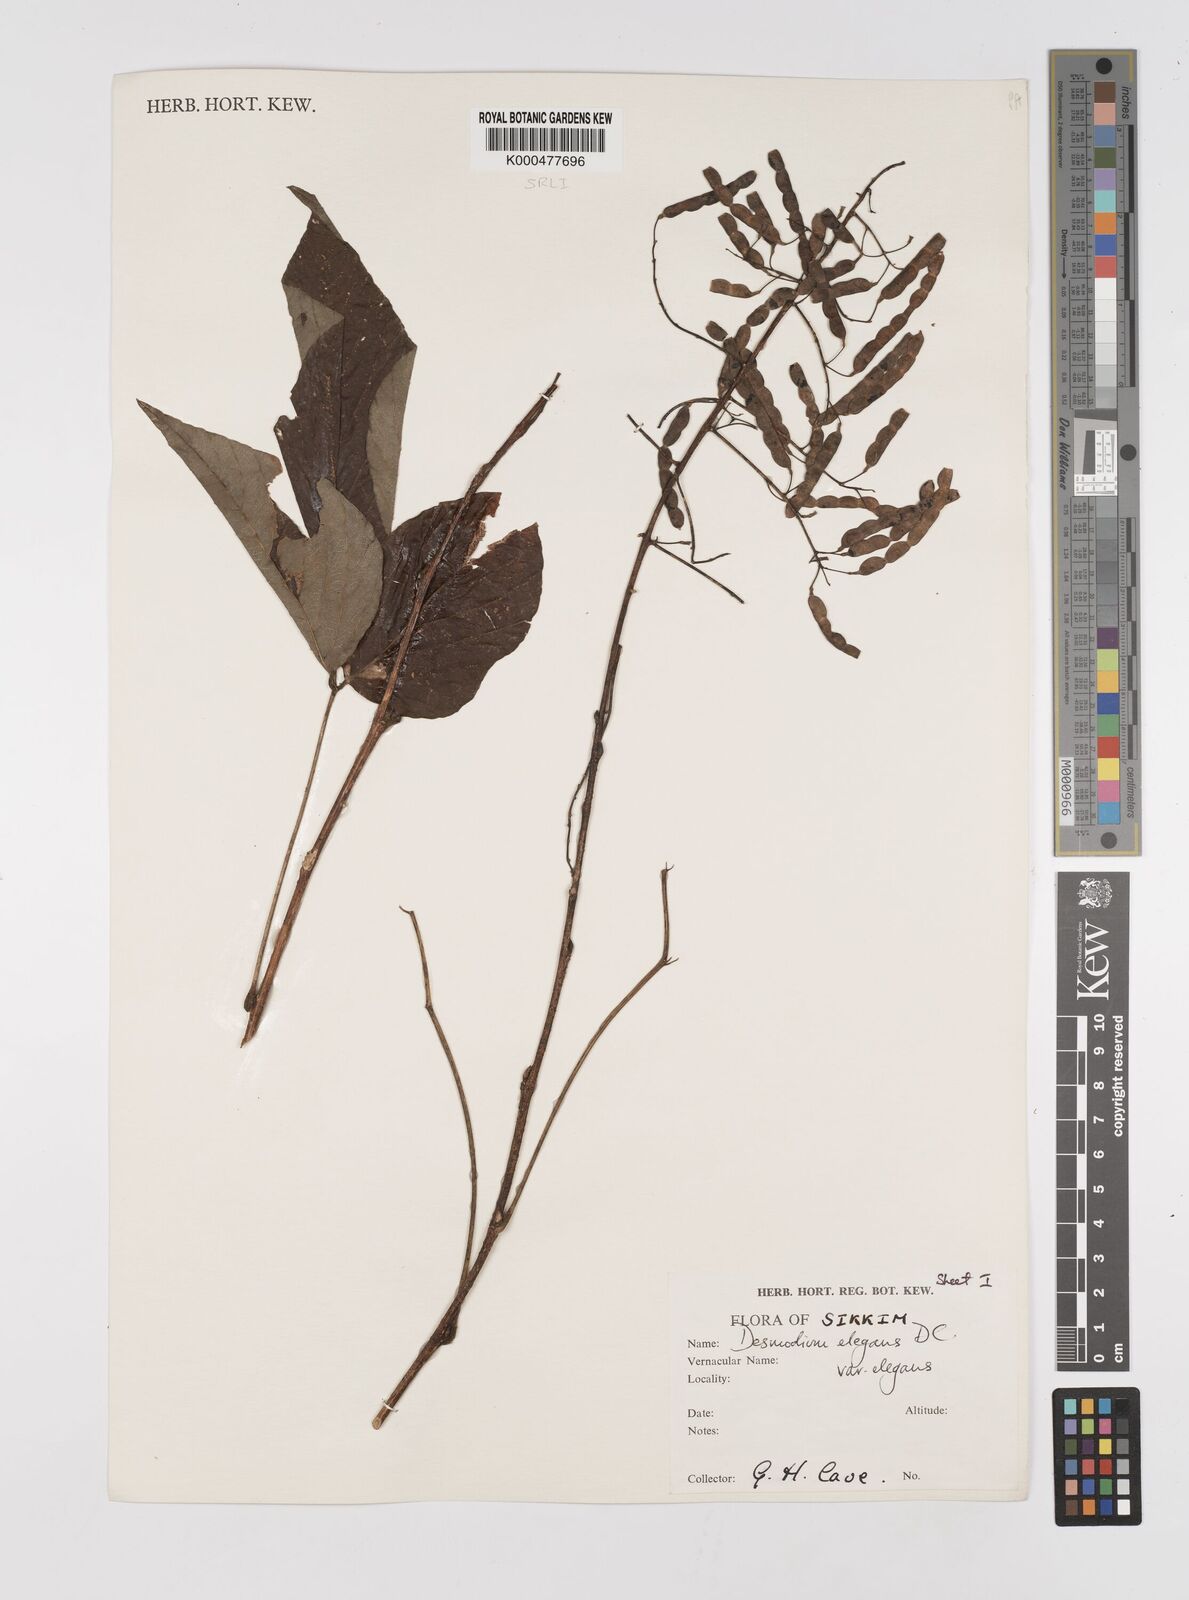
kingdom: Plantae
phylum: Tracheophyta
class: Magnoliopsida
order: Fabales
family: Fabaceae
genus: Sunhangia
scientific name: Sunhangia elegans
